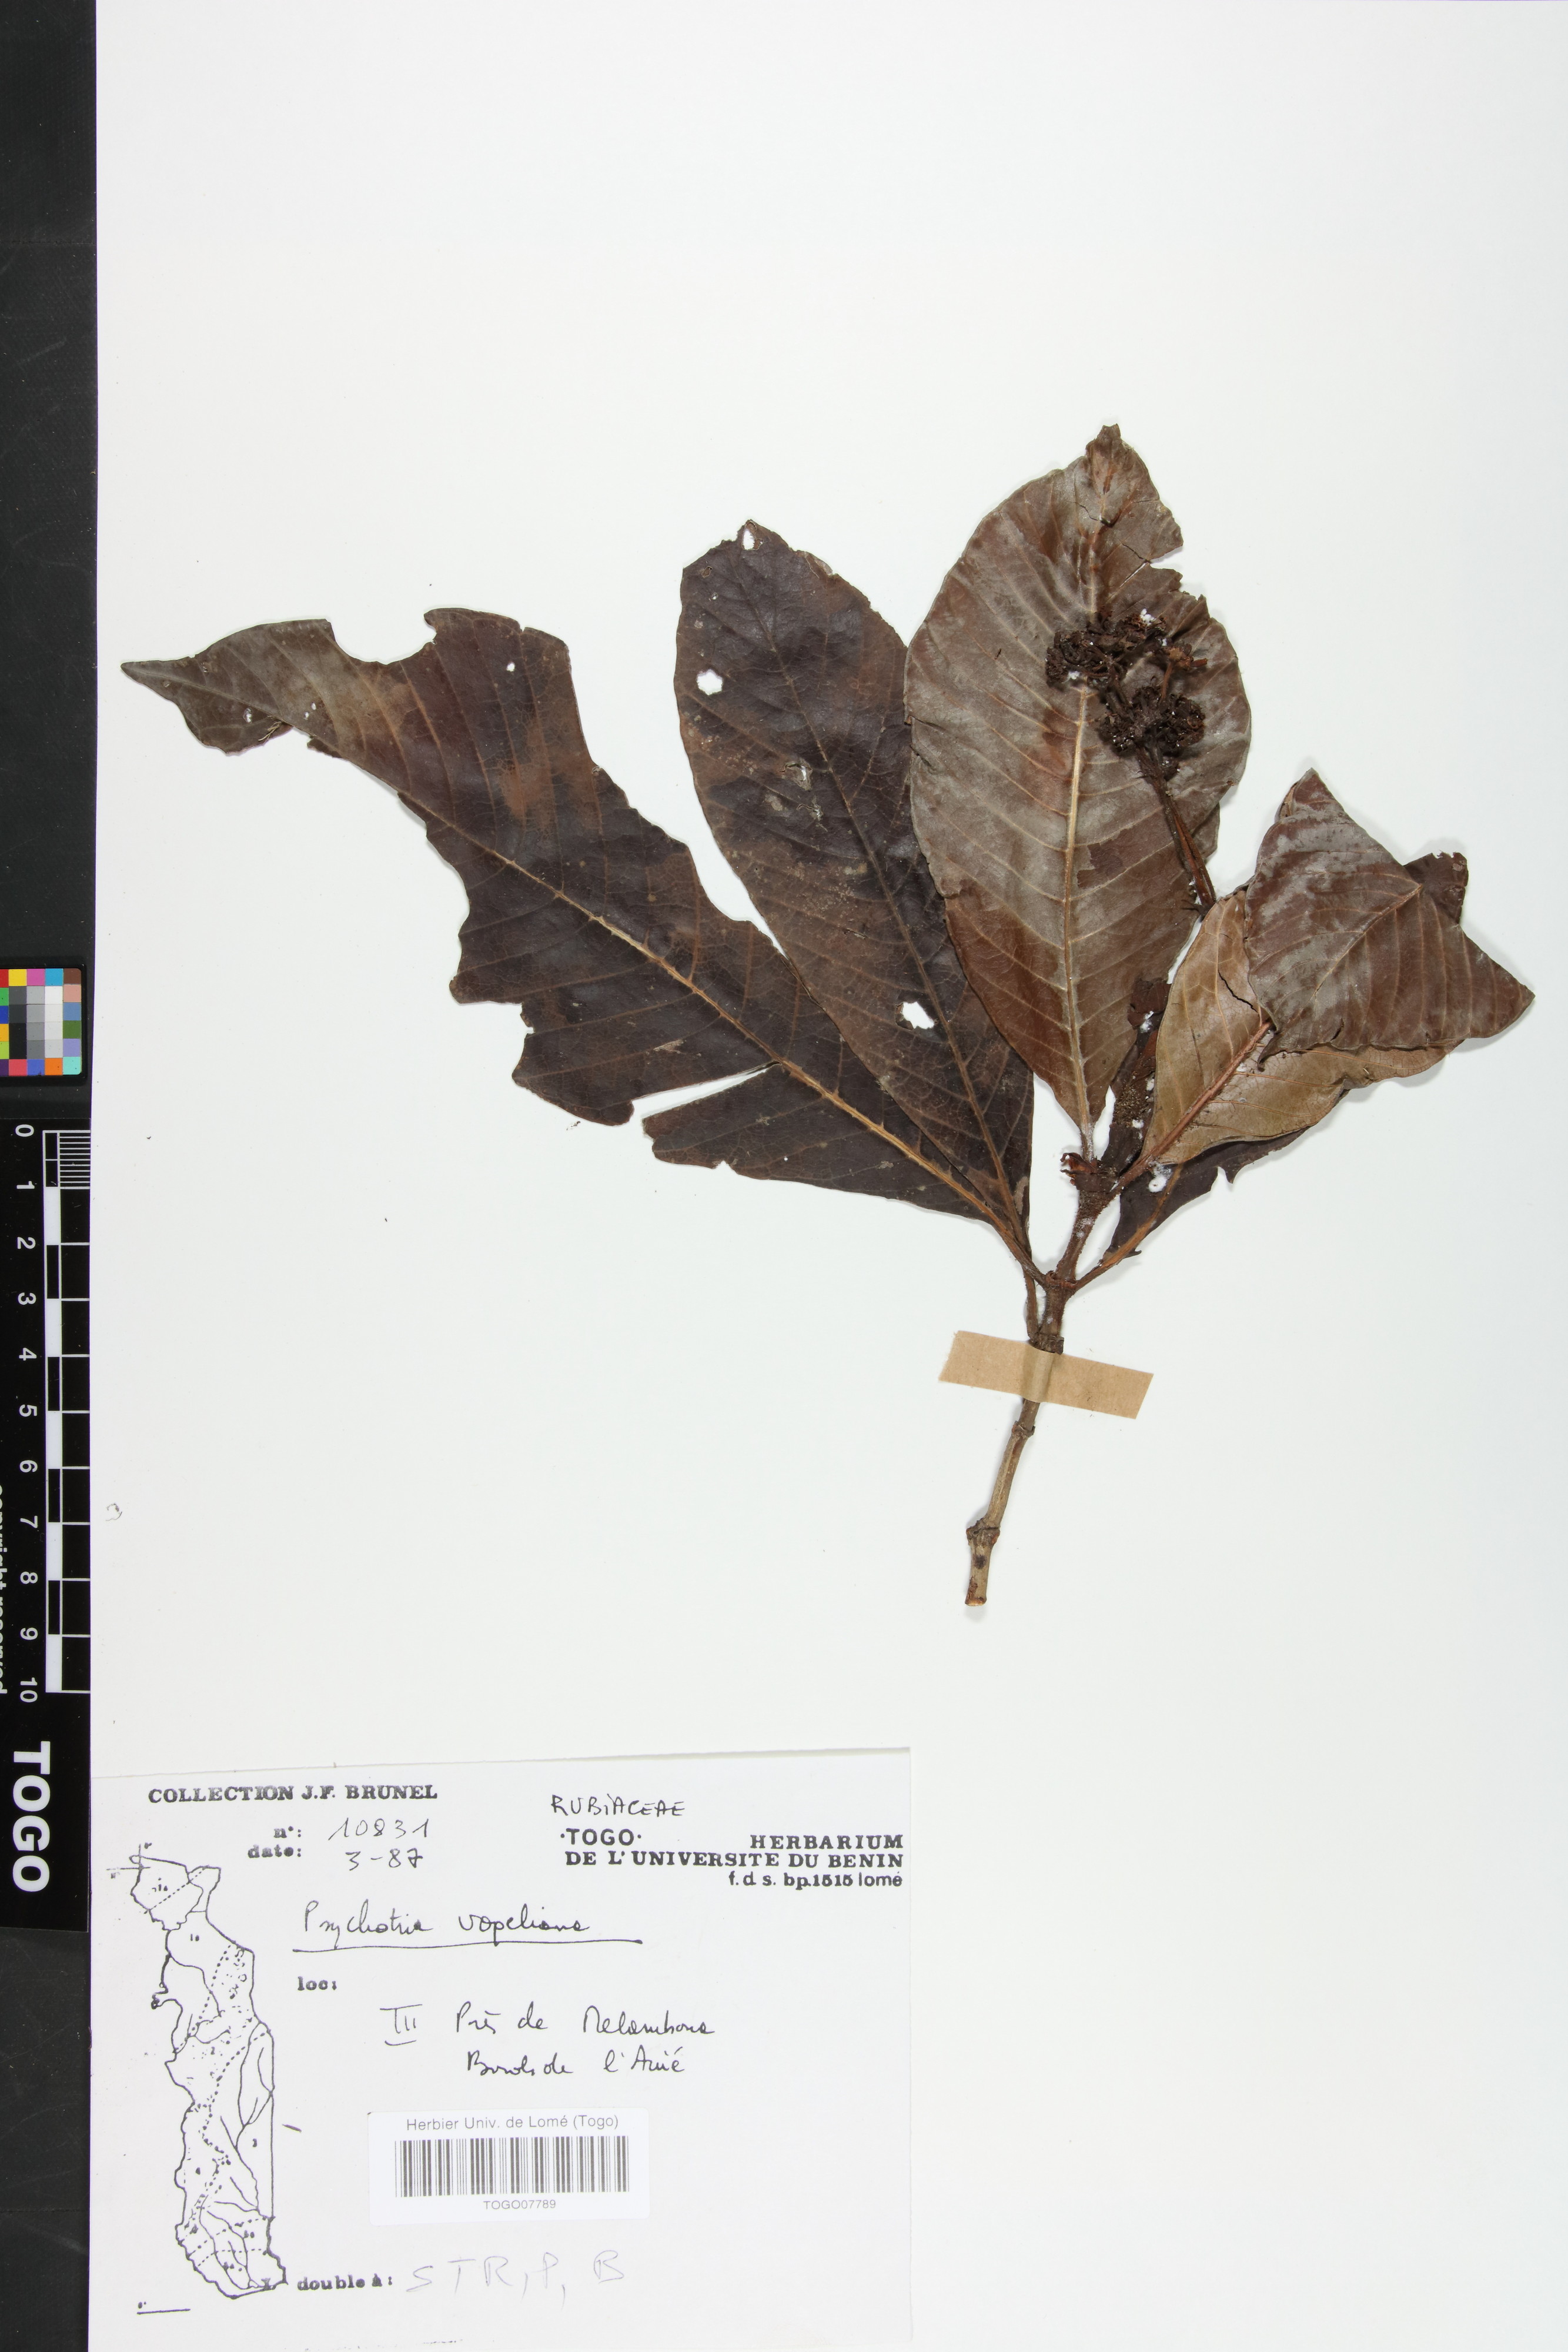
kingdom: Plantae
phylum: Tracheophyta
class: Magnoliopsida
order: Gentianales
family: Rubiaceae
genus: Psychotria
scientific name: Psychotria vogeliana
